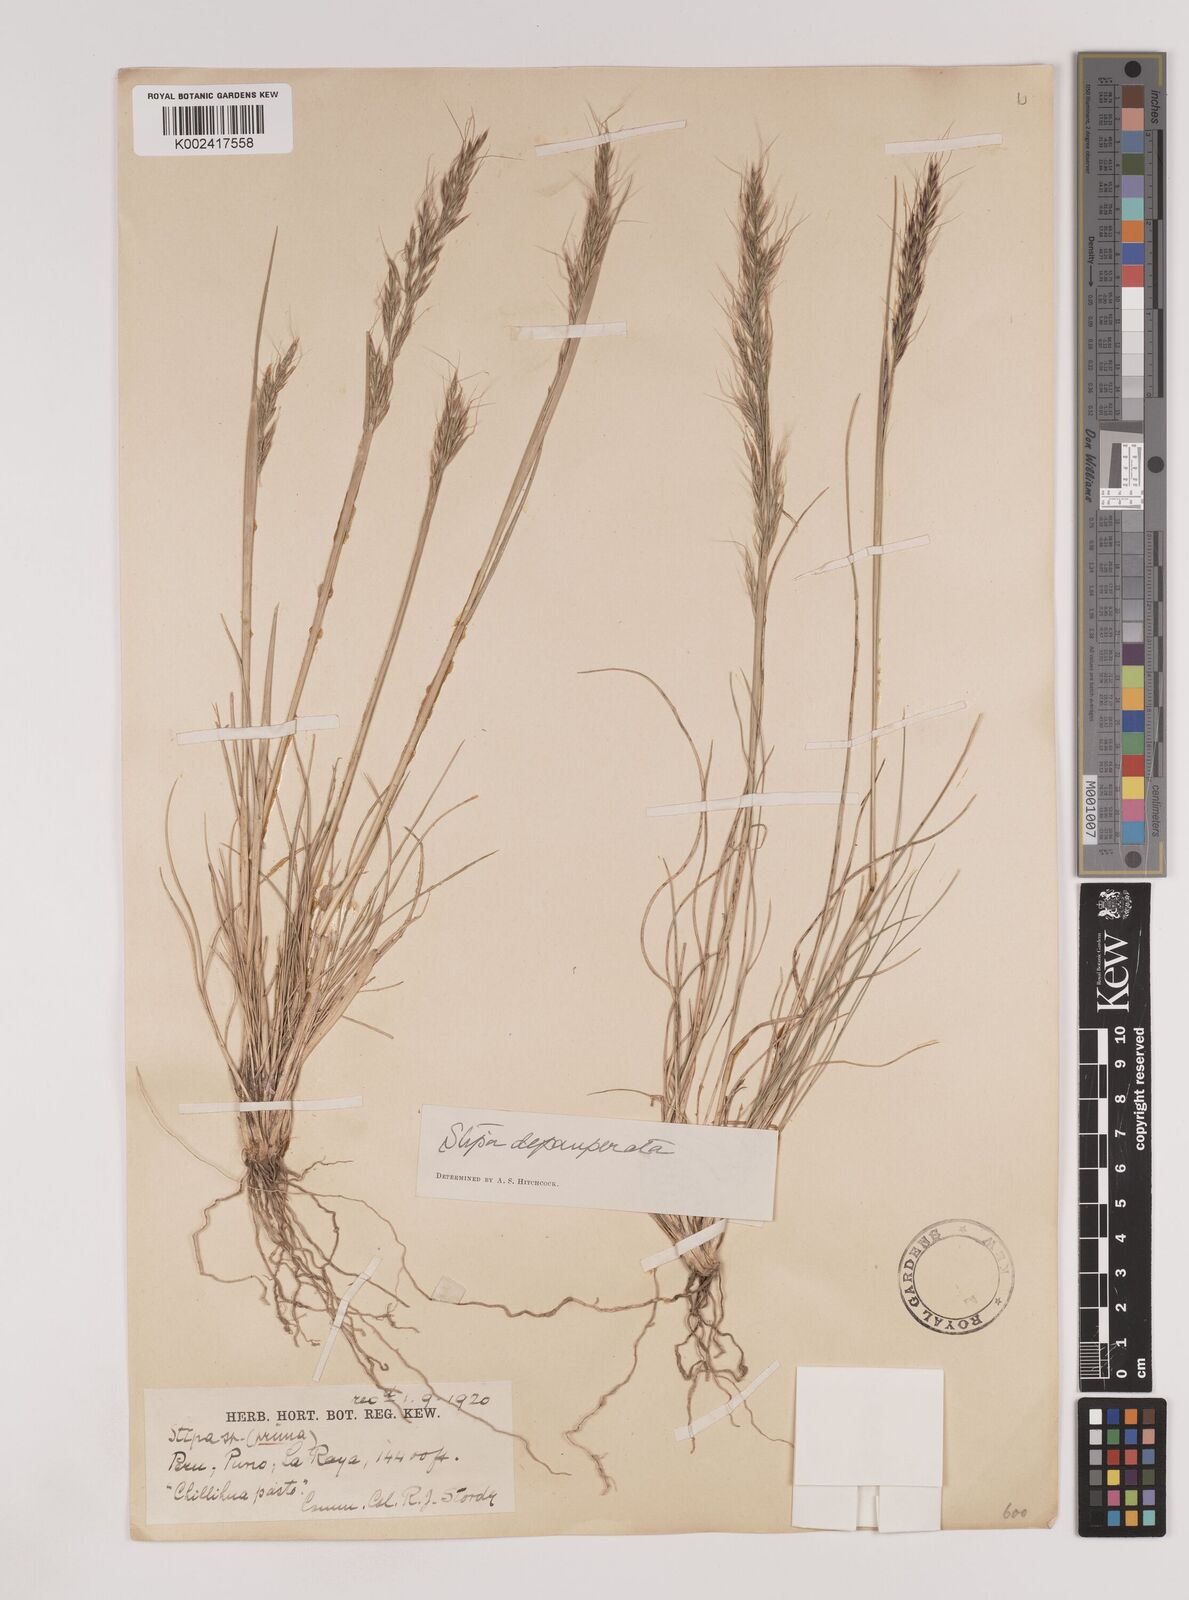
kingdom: Plantae
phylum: Tracheophyta
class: Liliopsida
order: Poales
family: Poaceae
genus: Nassella
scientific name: Nassella rupestris
